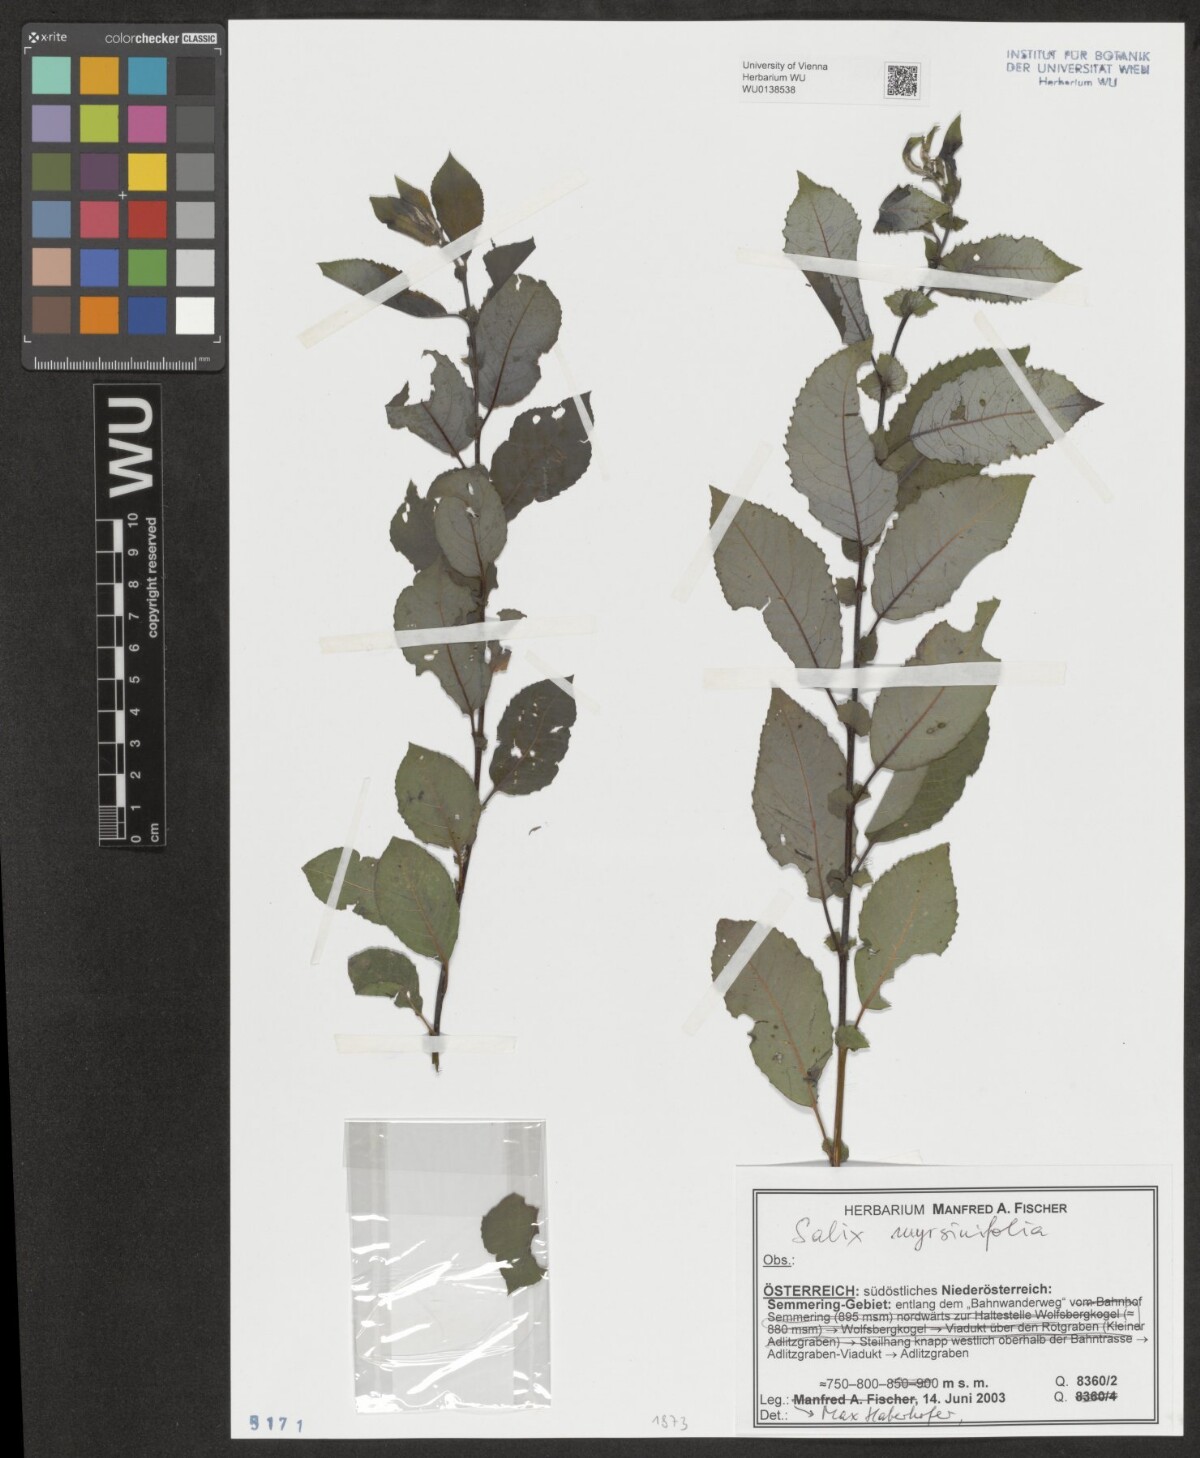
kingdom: Plantae
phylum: Tracheophyta
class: Magnoliopsida
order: Malpighiales
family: Salicaceae
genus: Salix
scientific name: Salix myrsinifolia
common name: Dark-leaved willow
